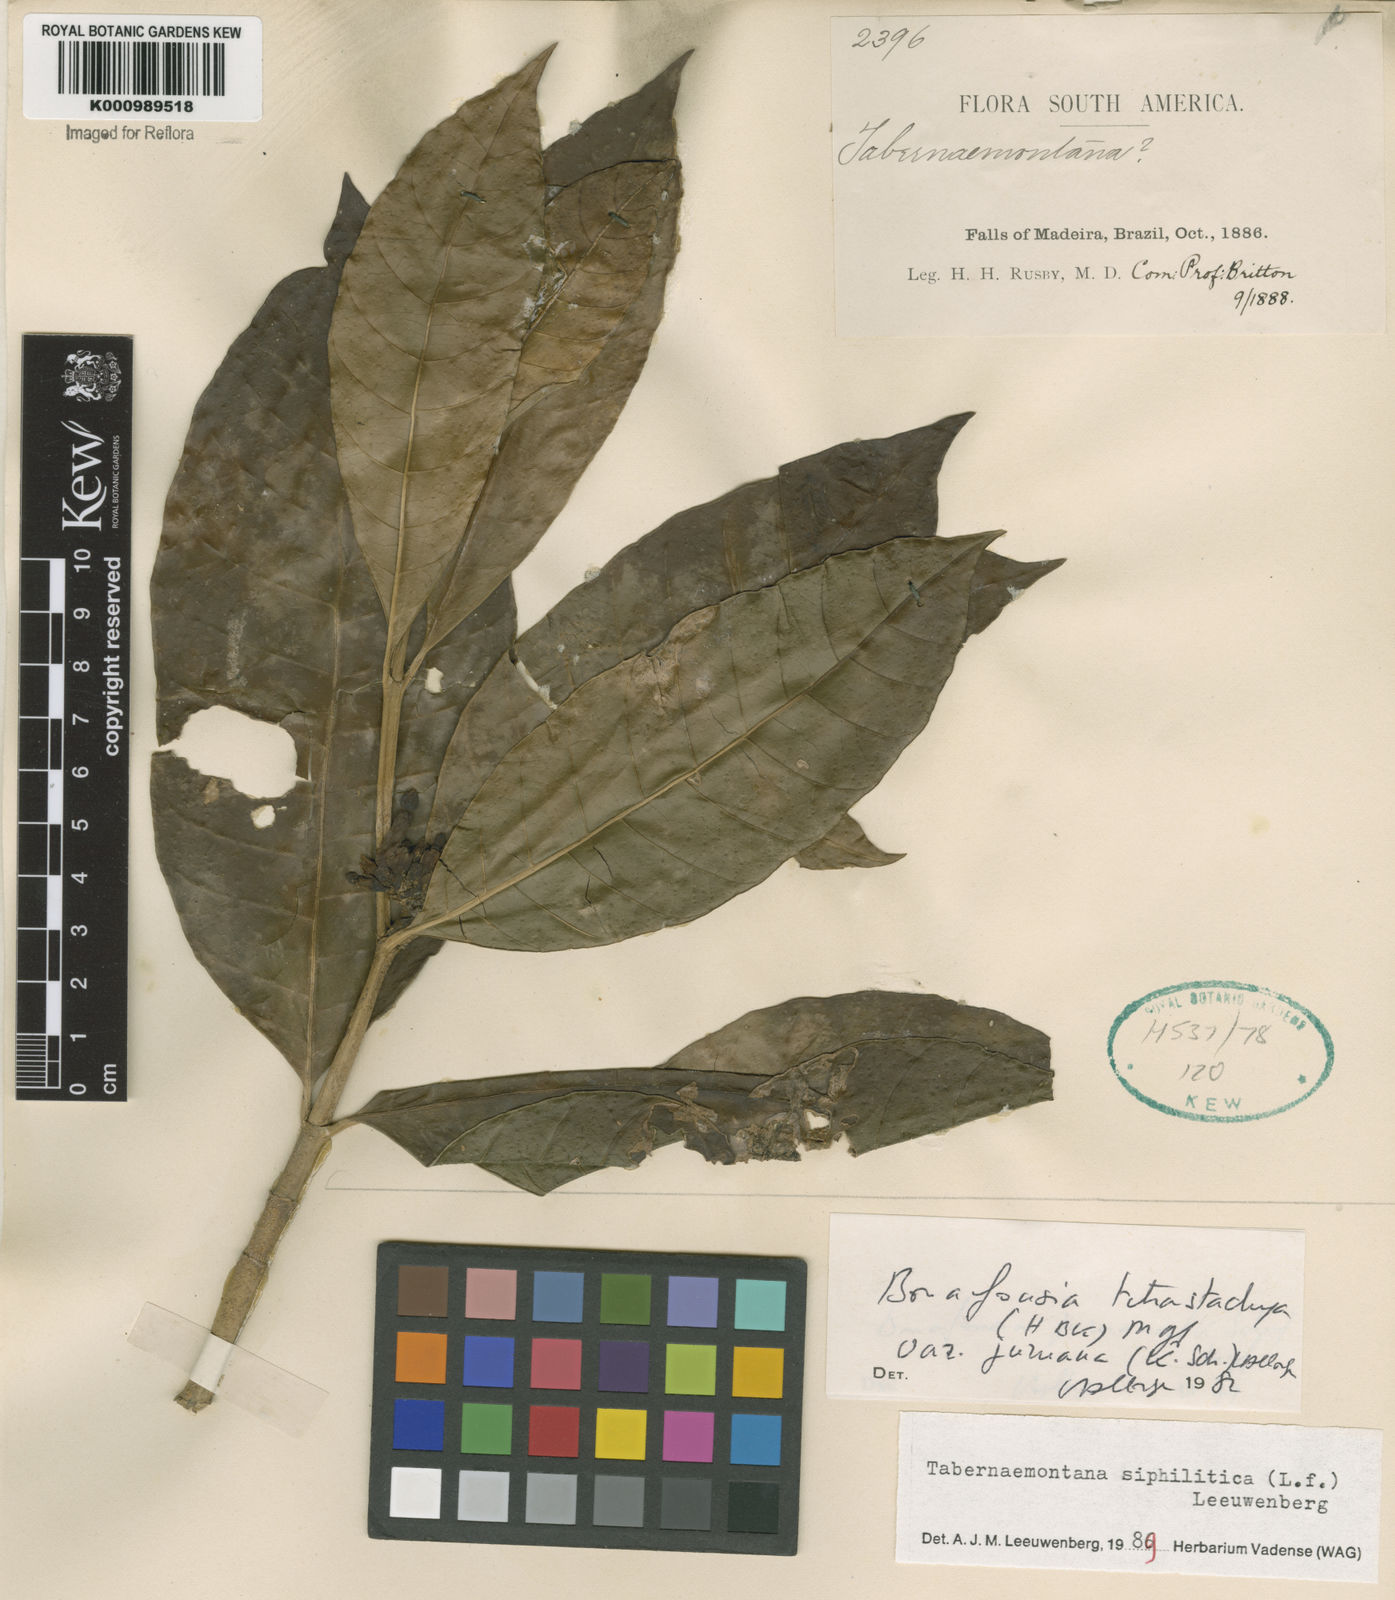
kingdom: Plantae
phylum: Tracheophyta
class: Magnoliopsida
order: Gentianales
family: Apocynaceae
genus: Tabernaemontana
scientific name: Tabernaemontana siphilitica
